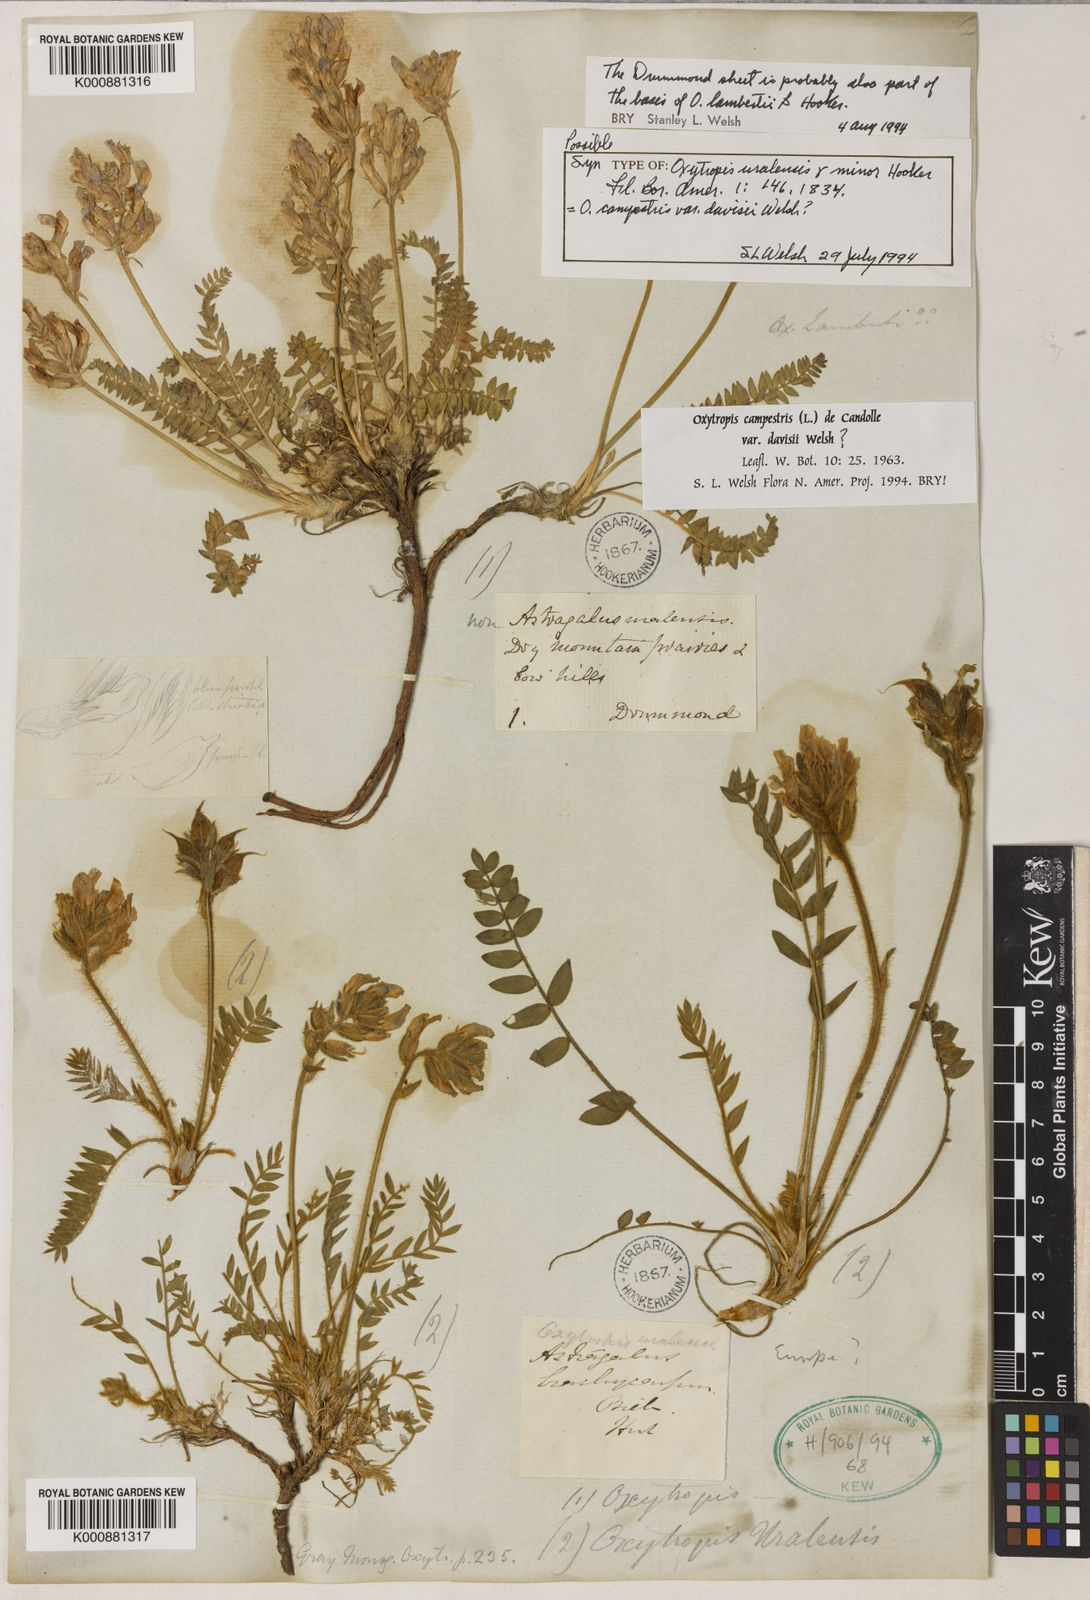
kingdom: Plantae
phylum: Tracheophyta
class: Magnoliopsida
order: Fabales
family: Fabaceae
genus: Oxytropis
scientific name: Oxytropis jordalii
